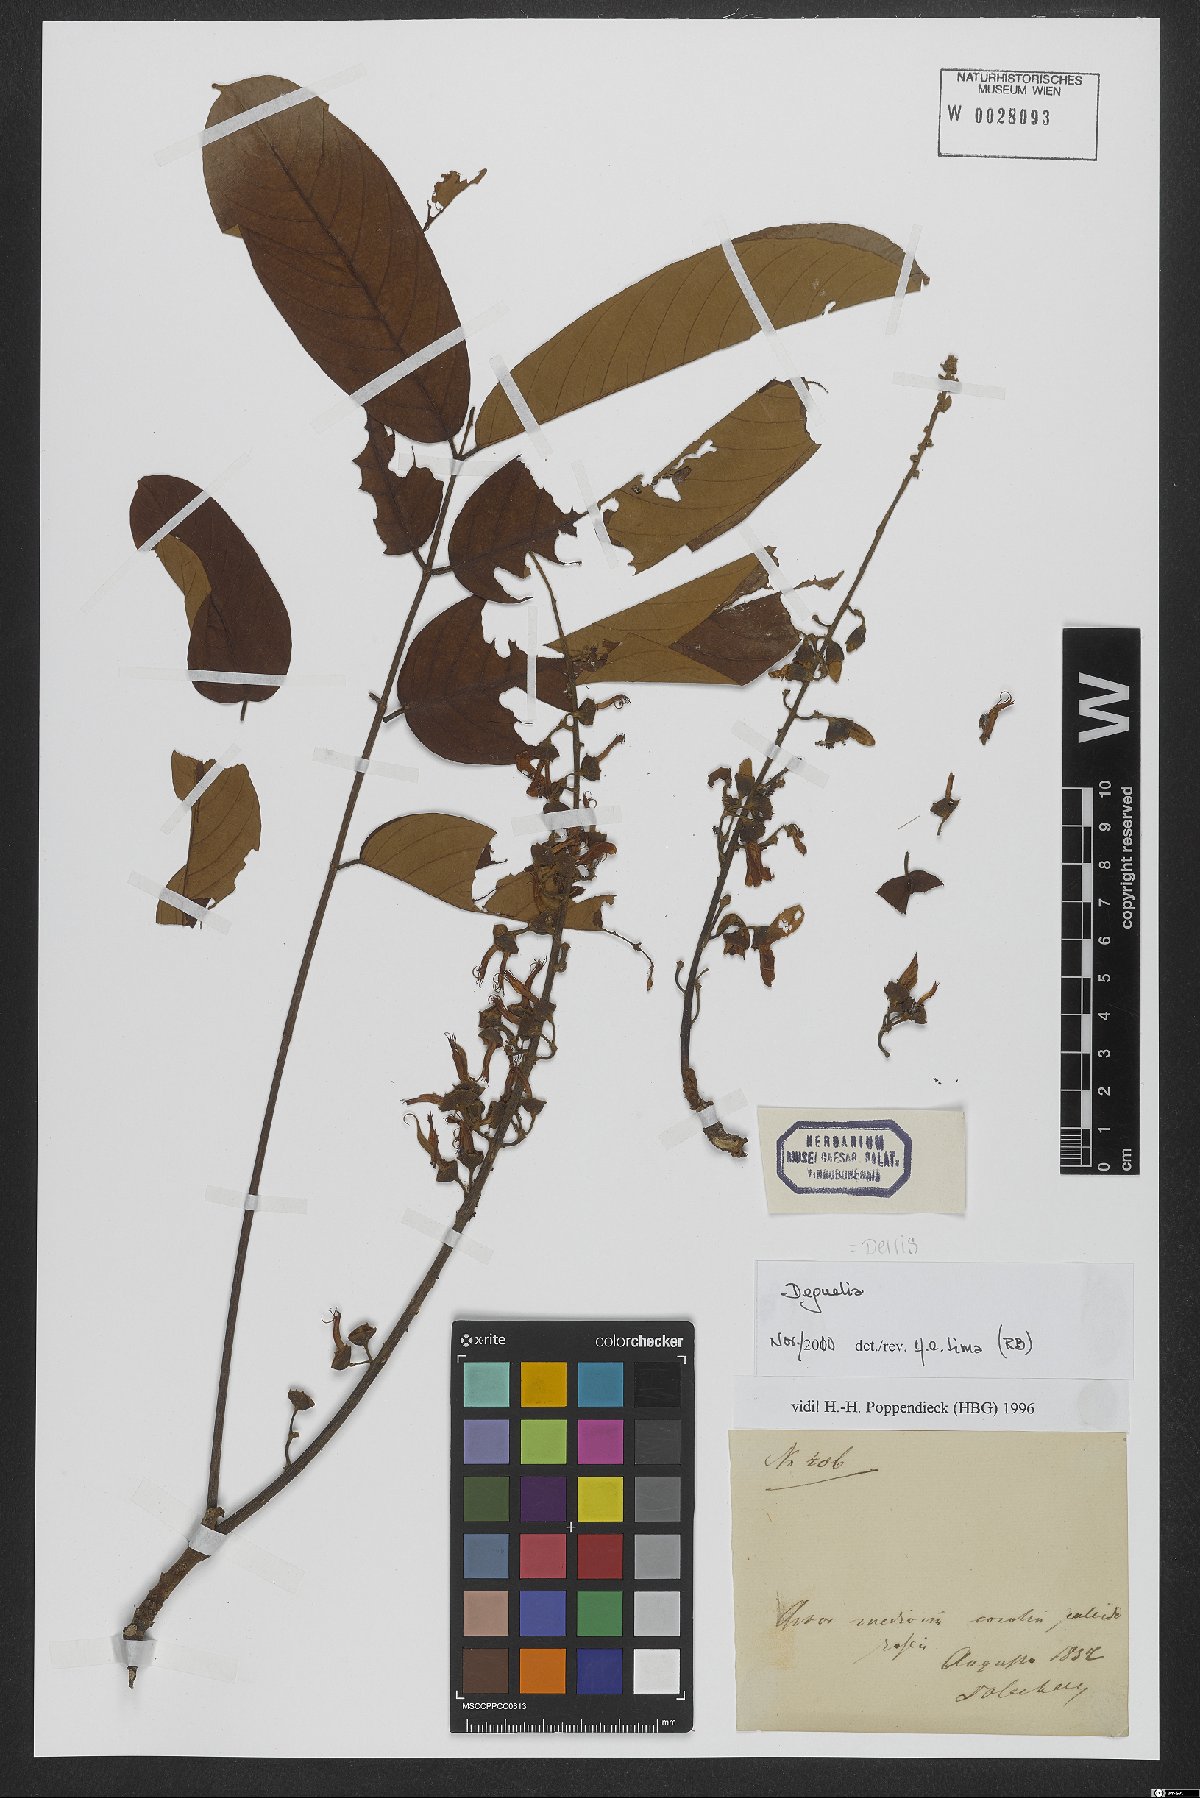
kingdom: Plantae
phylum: Tracheophyta
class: Magnoliopsida
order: Fabales
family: Fabaceae
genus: Derris
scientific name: Derris
